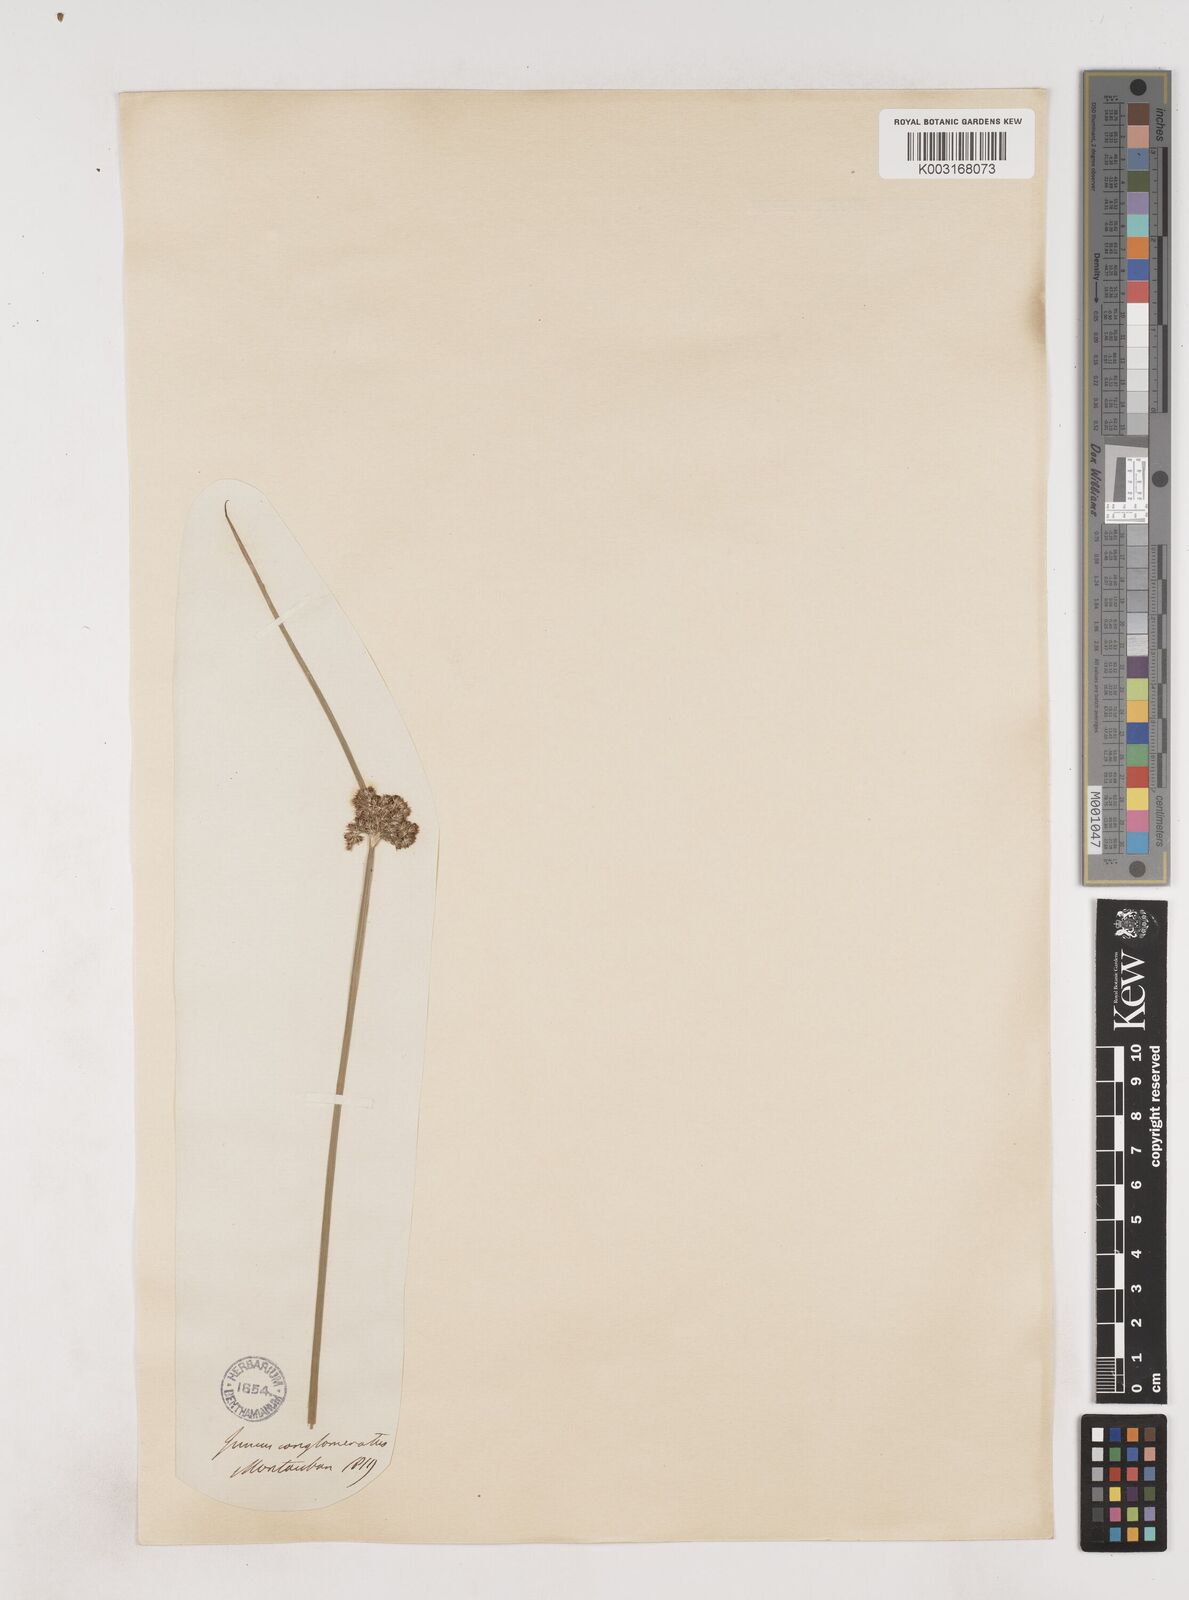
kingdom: Plantae
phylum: Tracheophyta
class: Liliopsida
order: Poales
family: Juncaceae
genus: Juncus
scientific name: Juncus conglomeratus
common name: Compact rush
